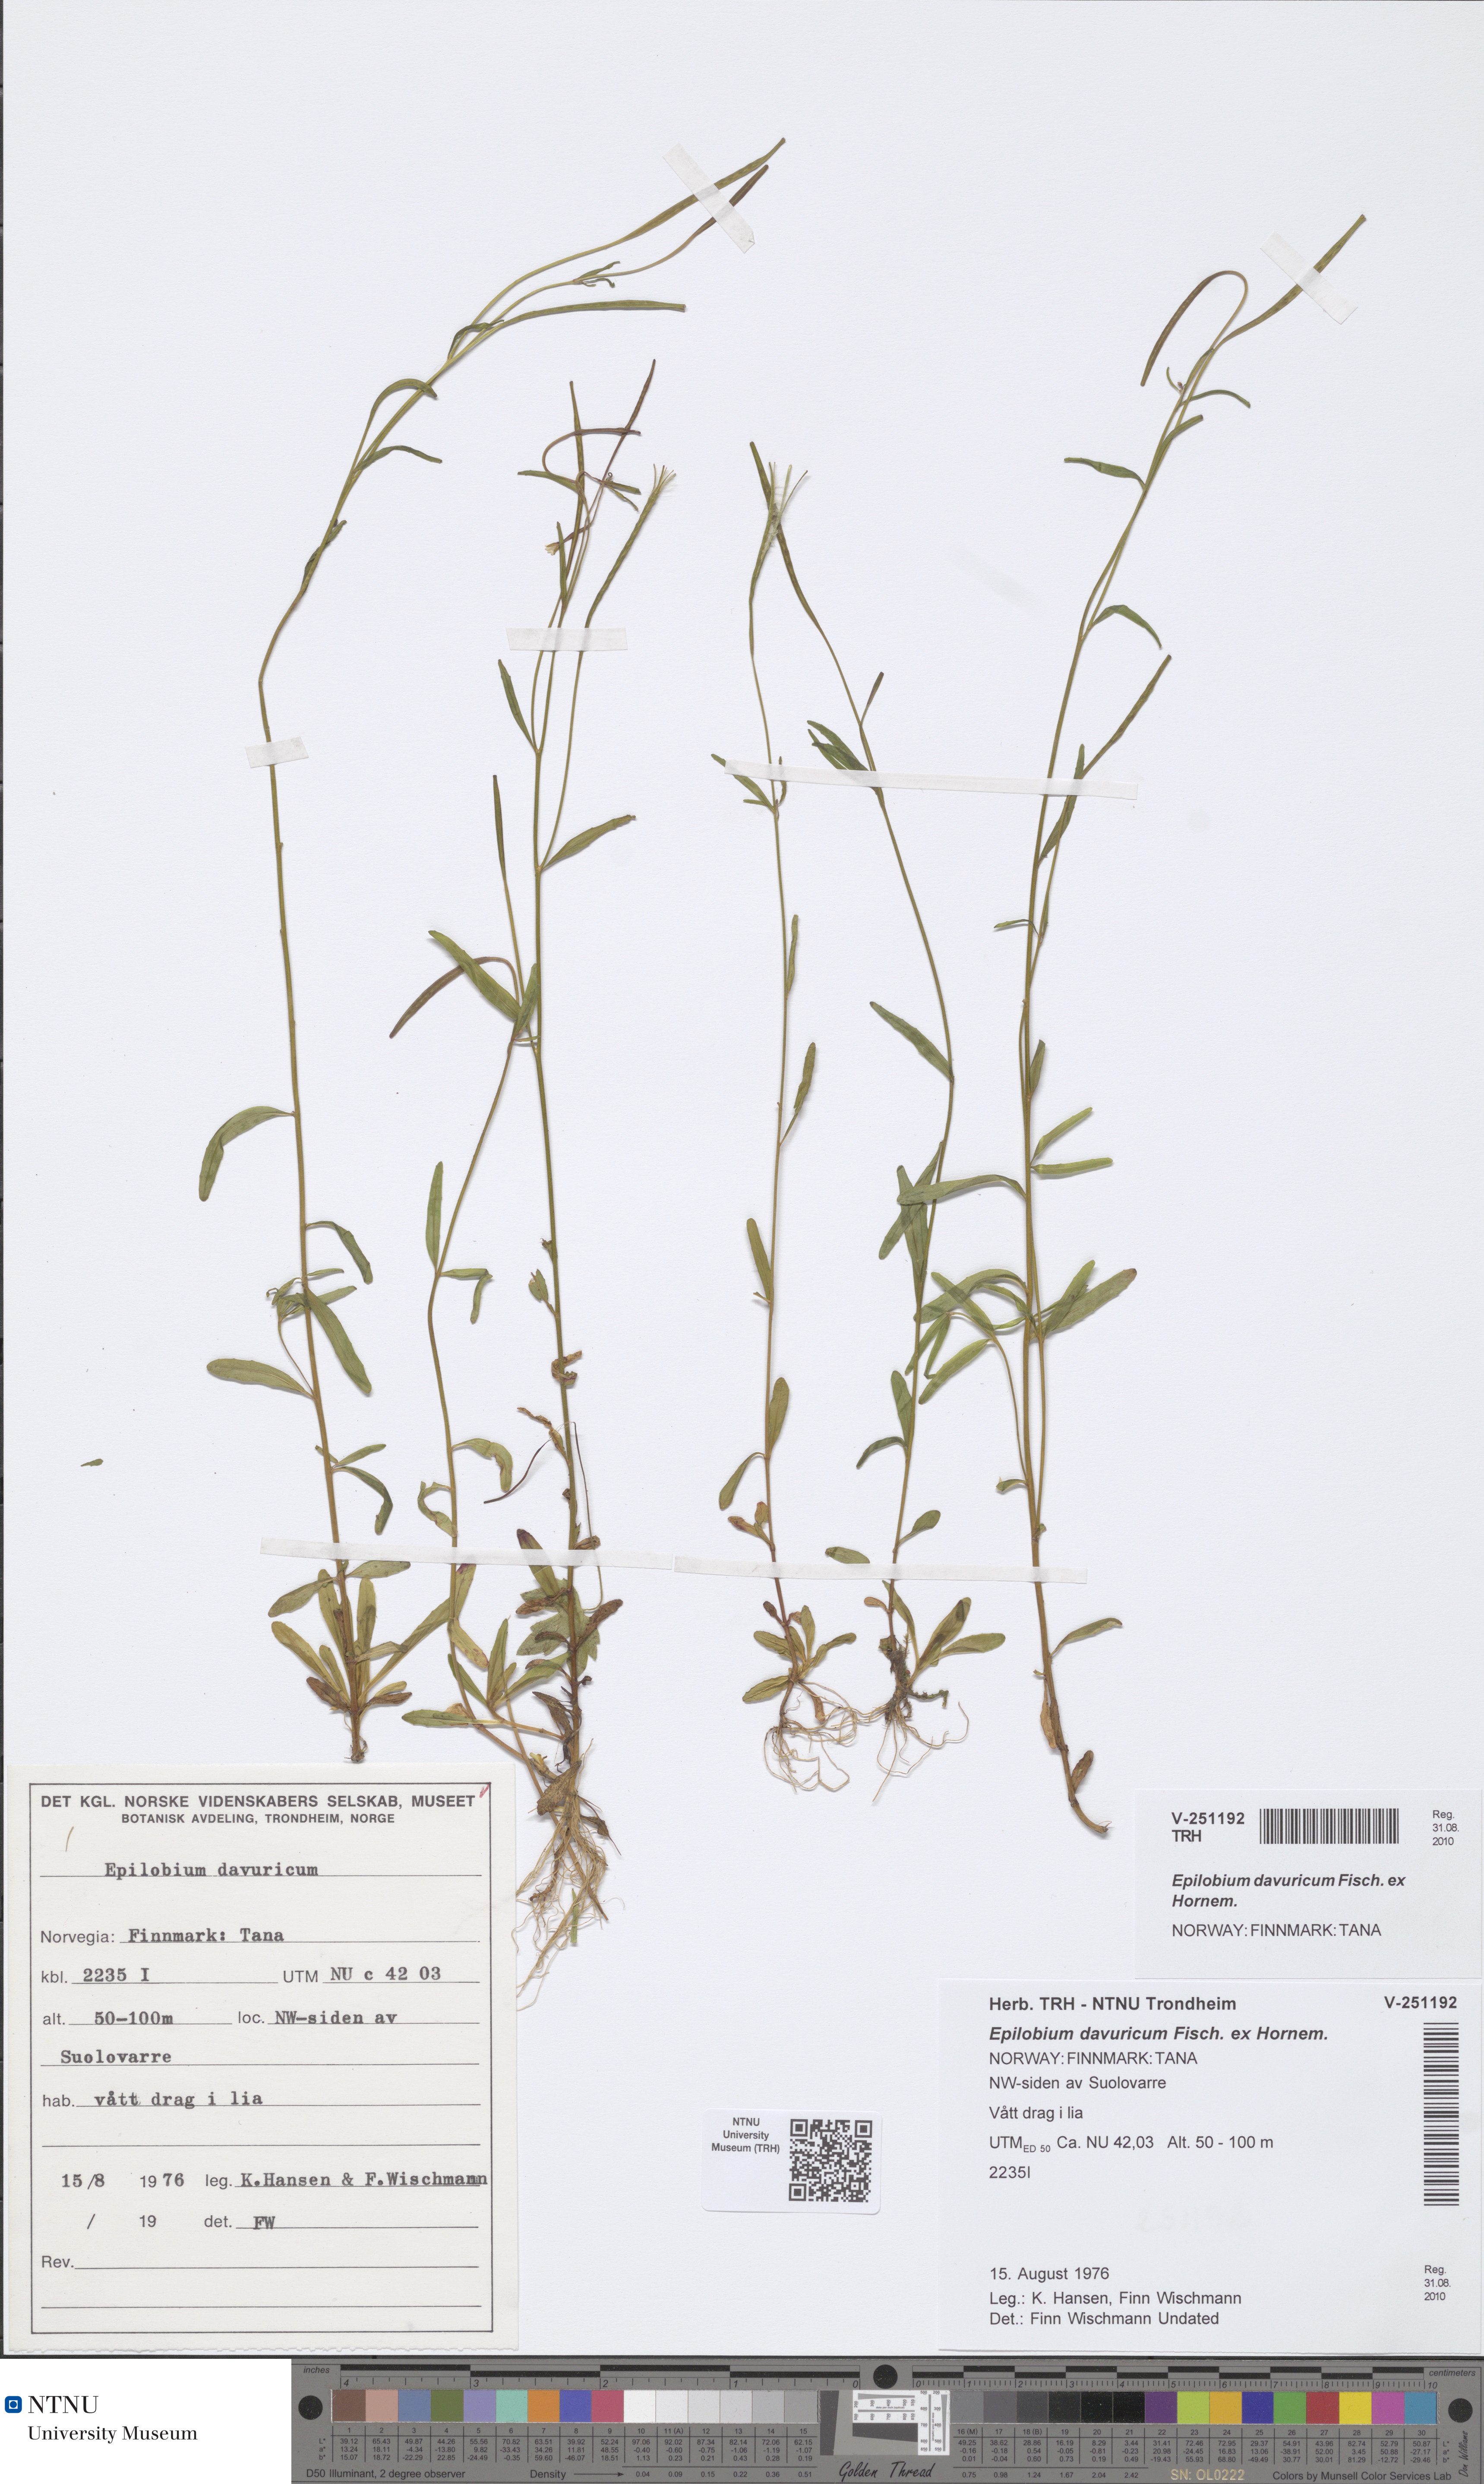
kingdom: Plantae
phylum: Tracheophyta
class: Magnoliopsida
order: Myrtales
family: Onagraceae
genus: Epilobium
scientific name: Epilobium davuricum
